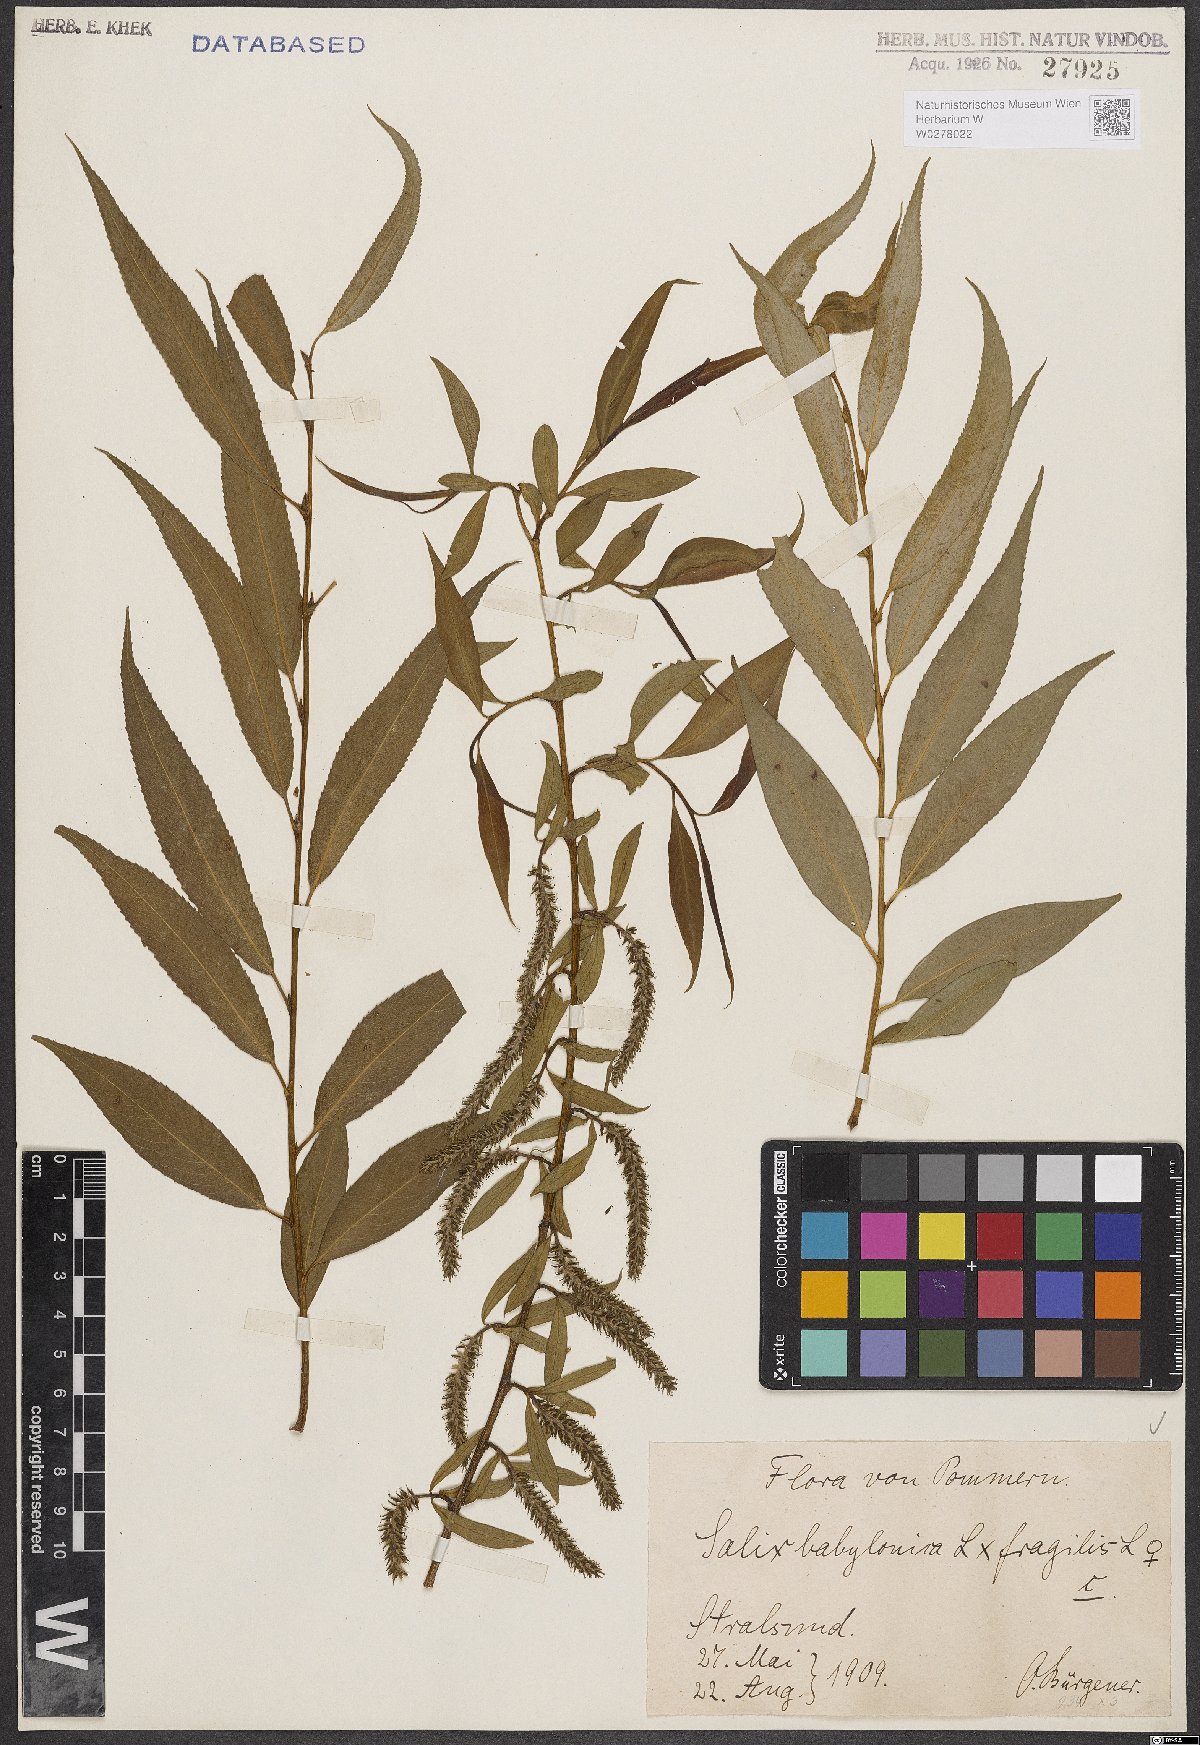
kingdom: Plantae
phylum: Tracheophyta
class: Magnoliopsida
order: Malpighiales
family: Salicaceae
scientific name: Salicaceae
